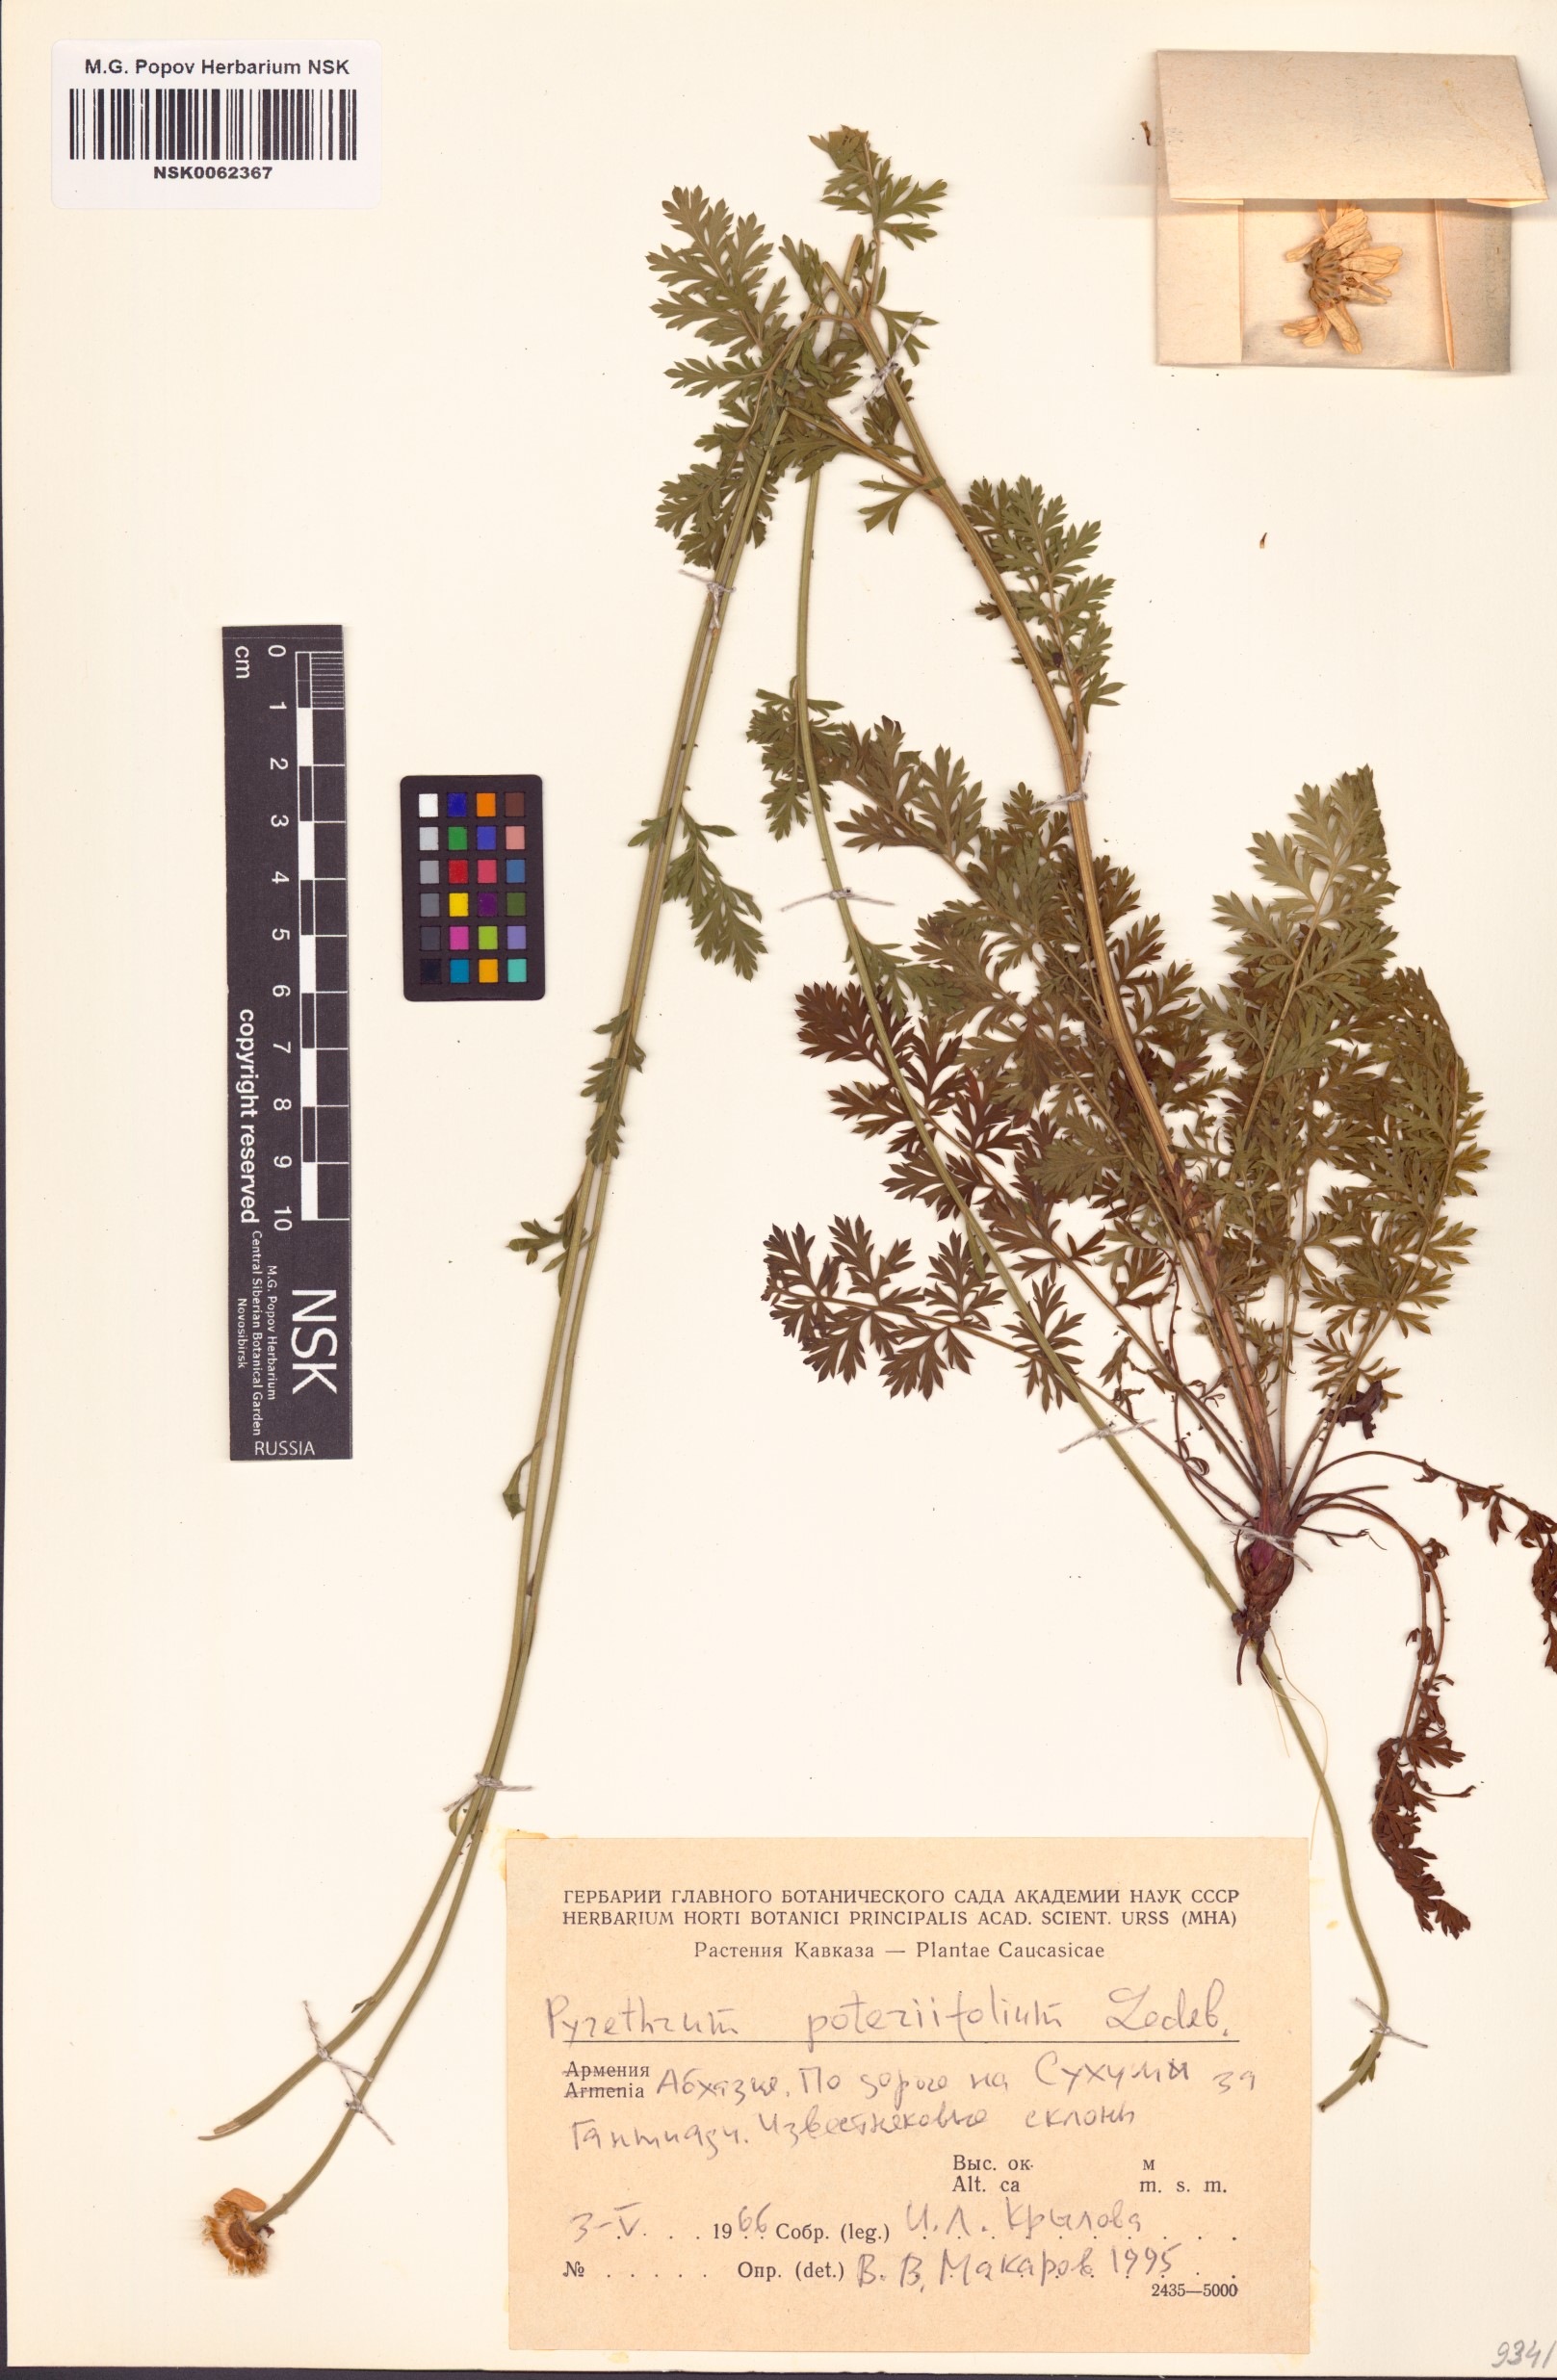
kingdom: Plantae
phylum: Tracheophyta
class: Magnoliopsida
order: Asterales
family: Asteraceae
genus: Tanacetum
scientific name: Tanacetum poteriifolium
